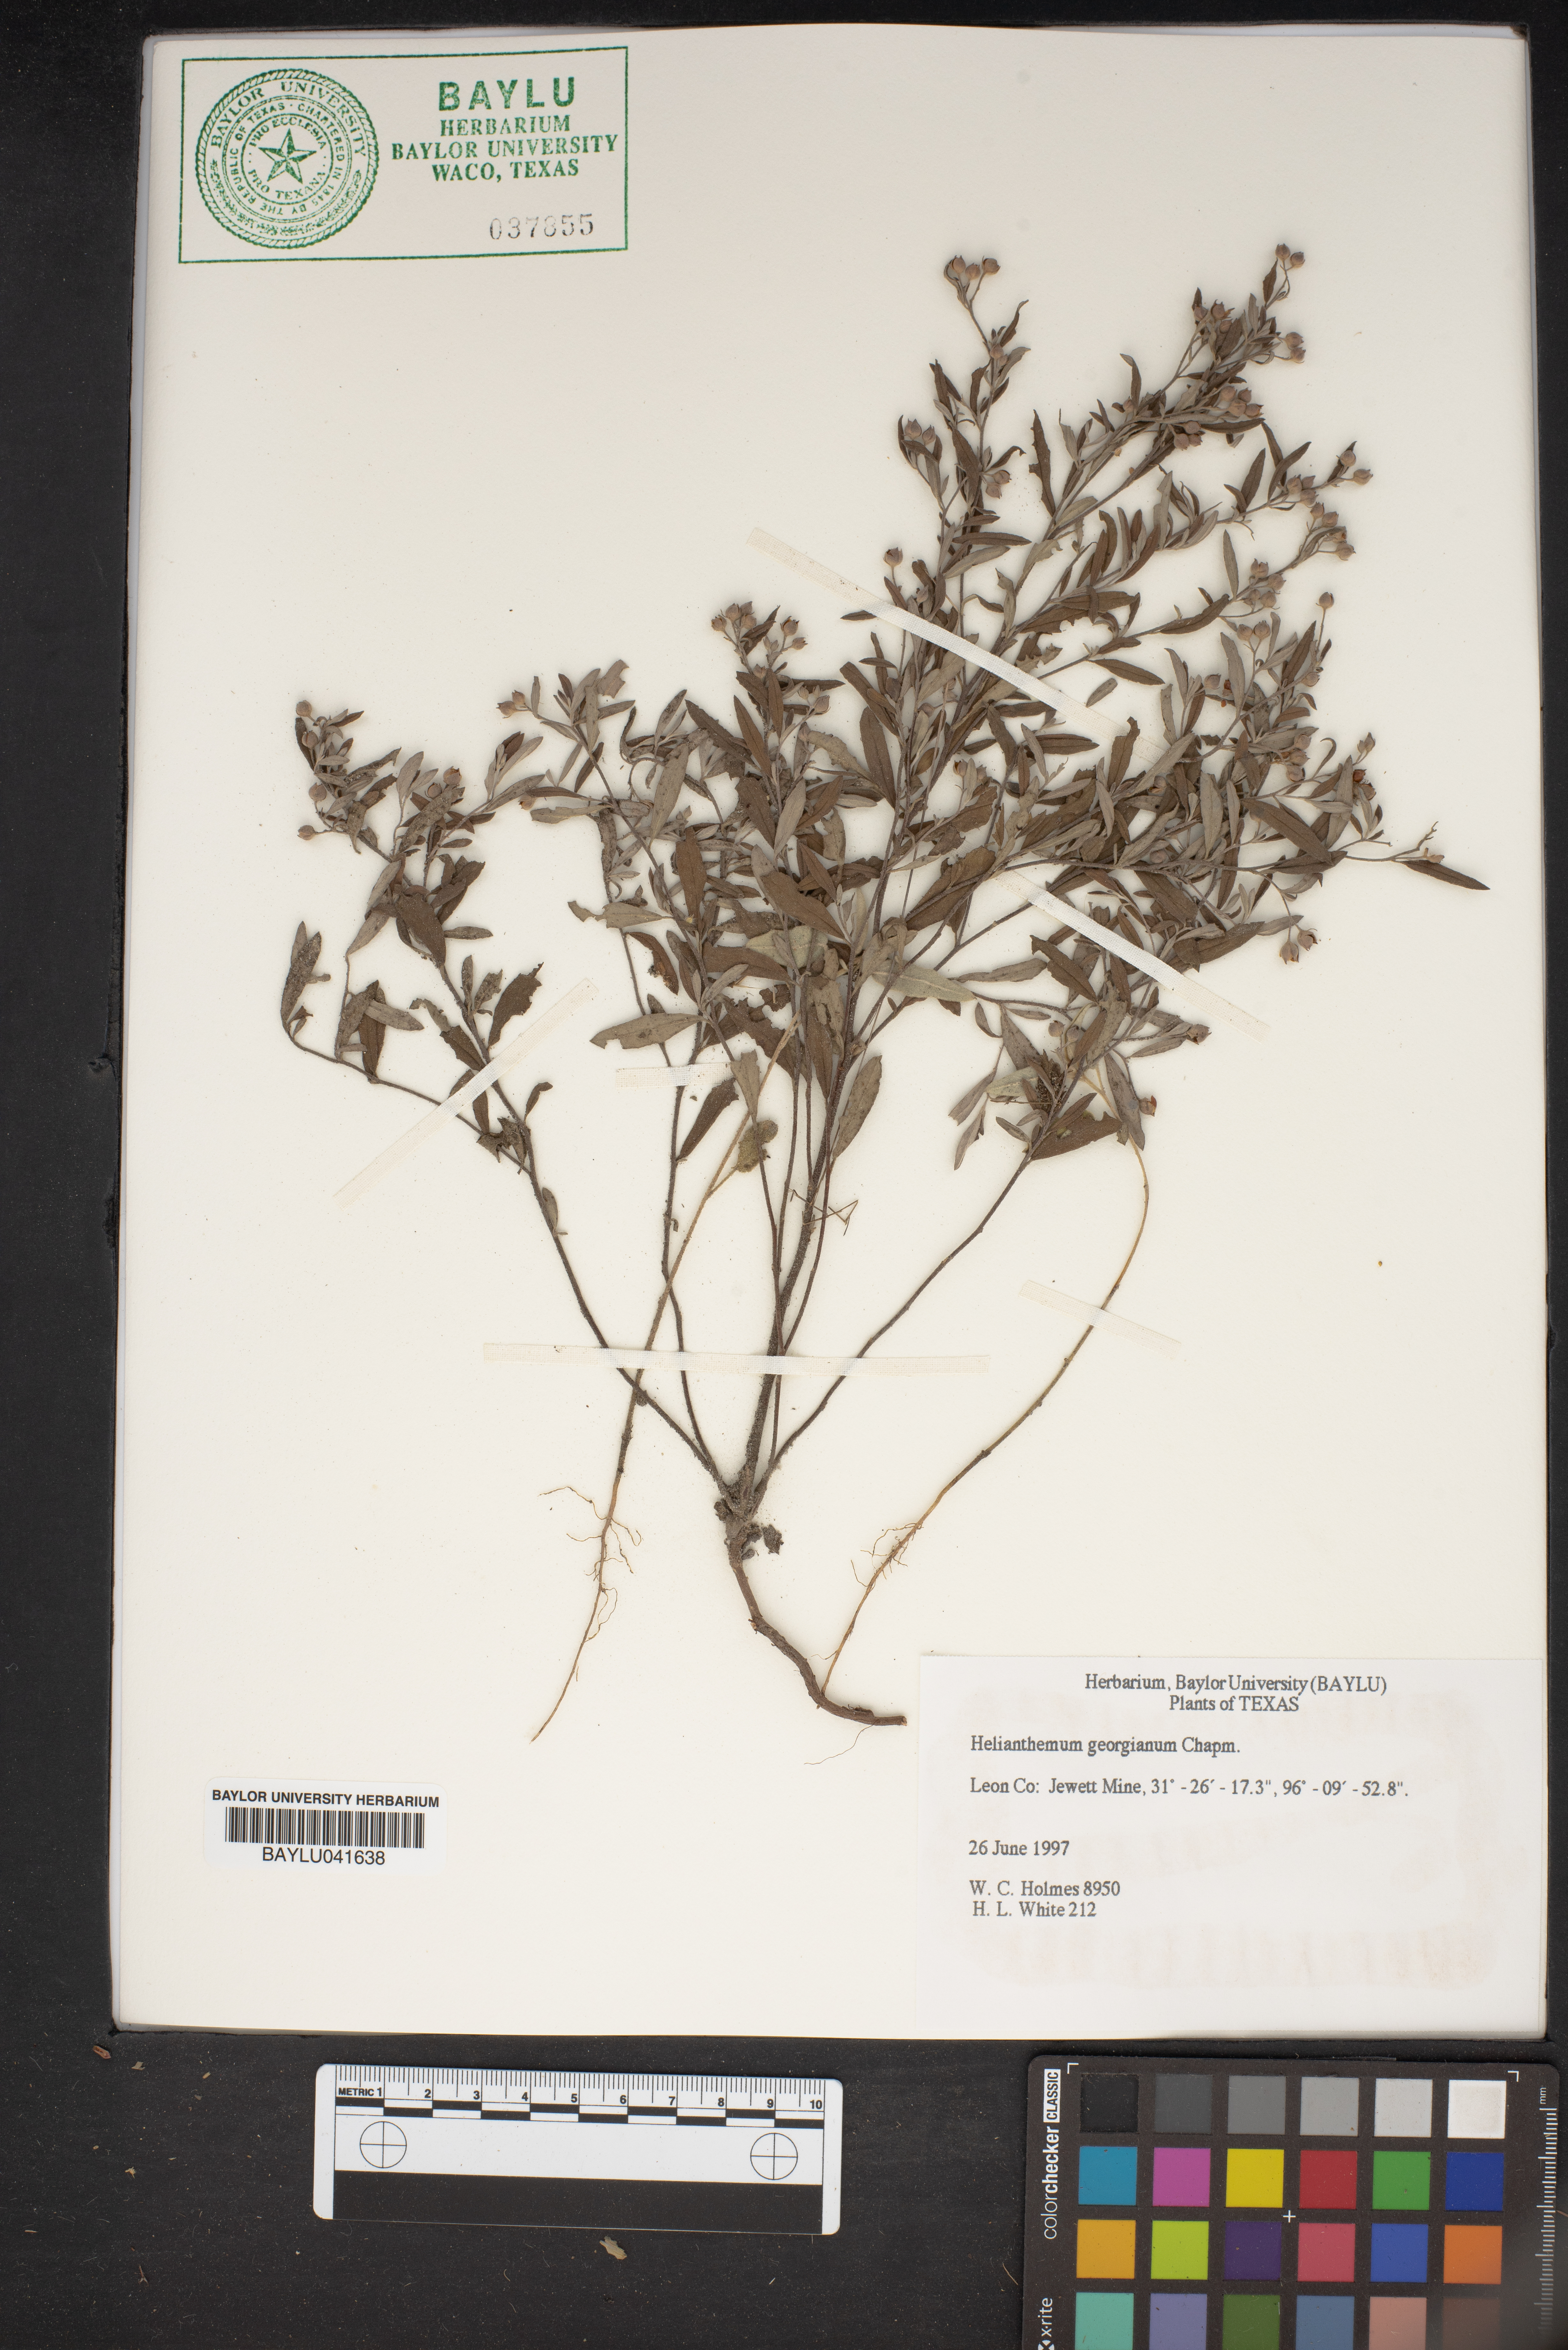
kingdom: Plantae
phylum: Tracheophyta
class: Magnoliopsida
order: Malvales
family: Cistaceae
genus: Crocanthemum
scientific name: Crocanthemum georgianum
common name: Georgia frostweed
